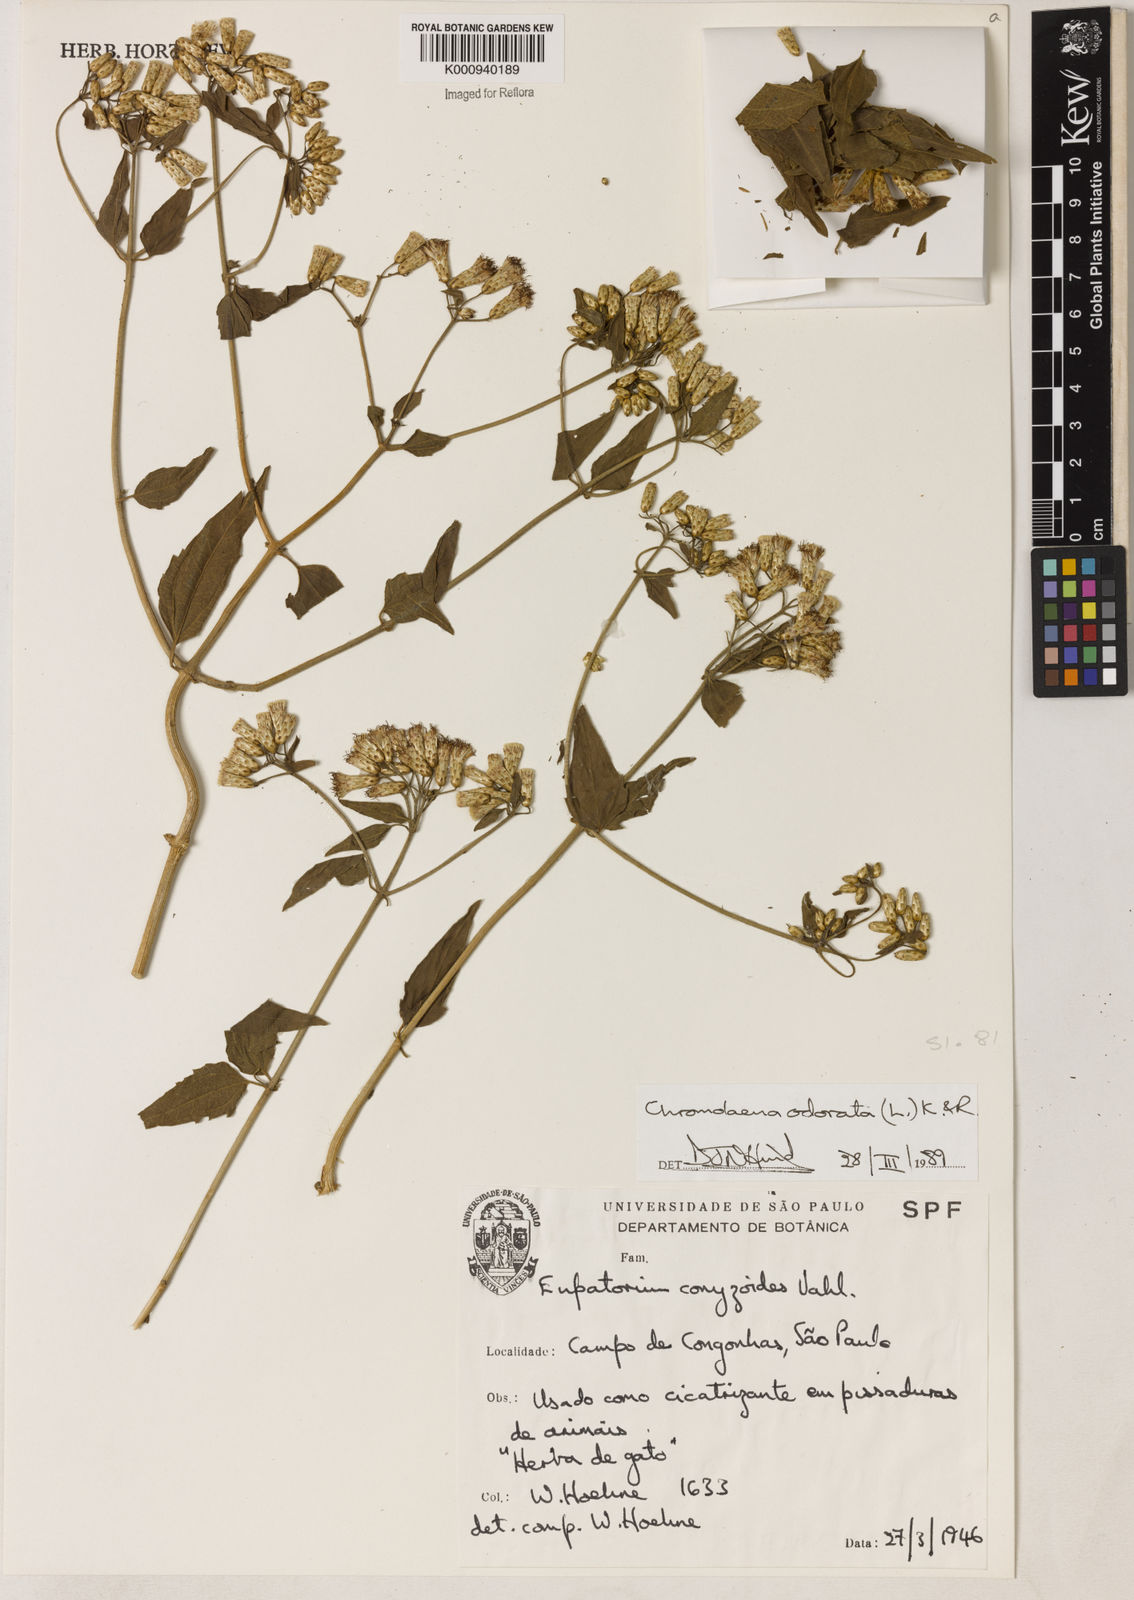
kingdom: Plantae
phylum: Tracheophyta
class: Magnoliopsida
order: Asterales
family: Asteraceae
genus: Chromolaena
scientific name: Chromolaena odorata
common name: Siamweed
